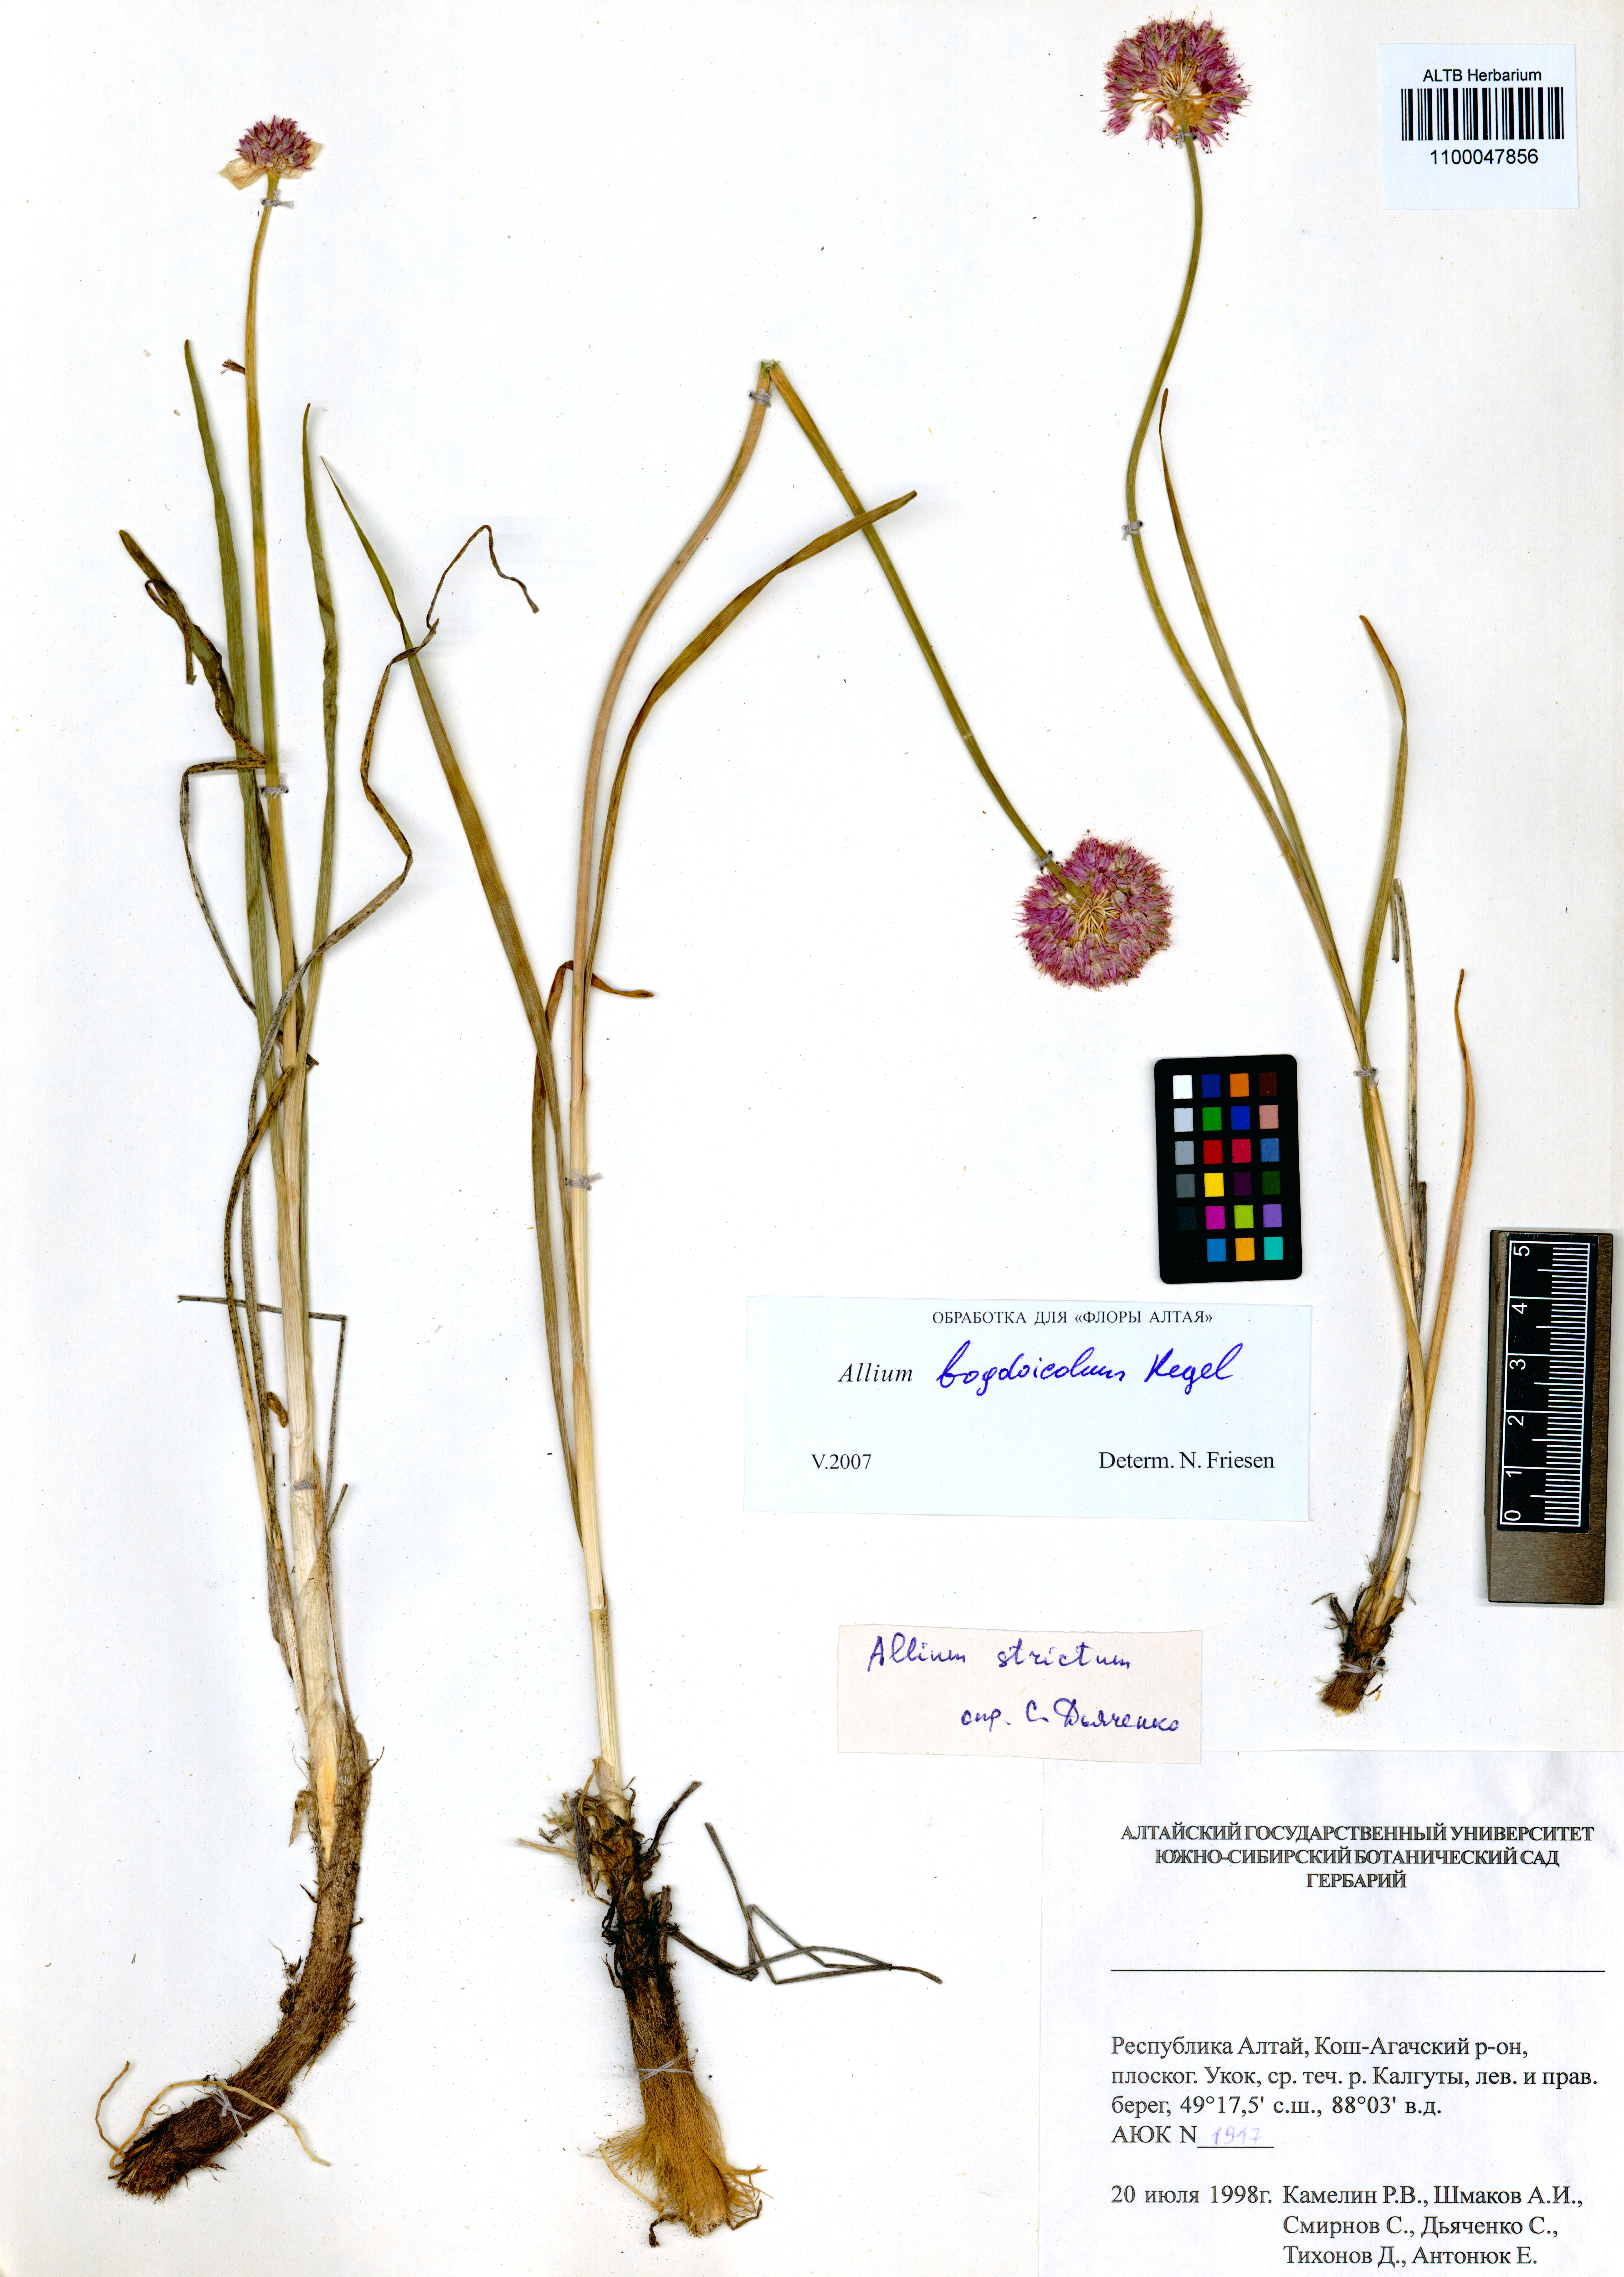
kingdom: Plantae
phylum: Tracheophyta
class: Liliopsida
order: Asparagales
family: Amaryllidaceae
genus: Allium
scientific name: Allium schrenkii
